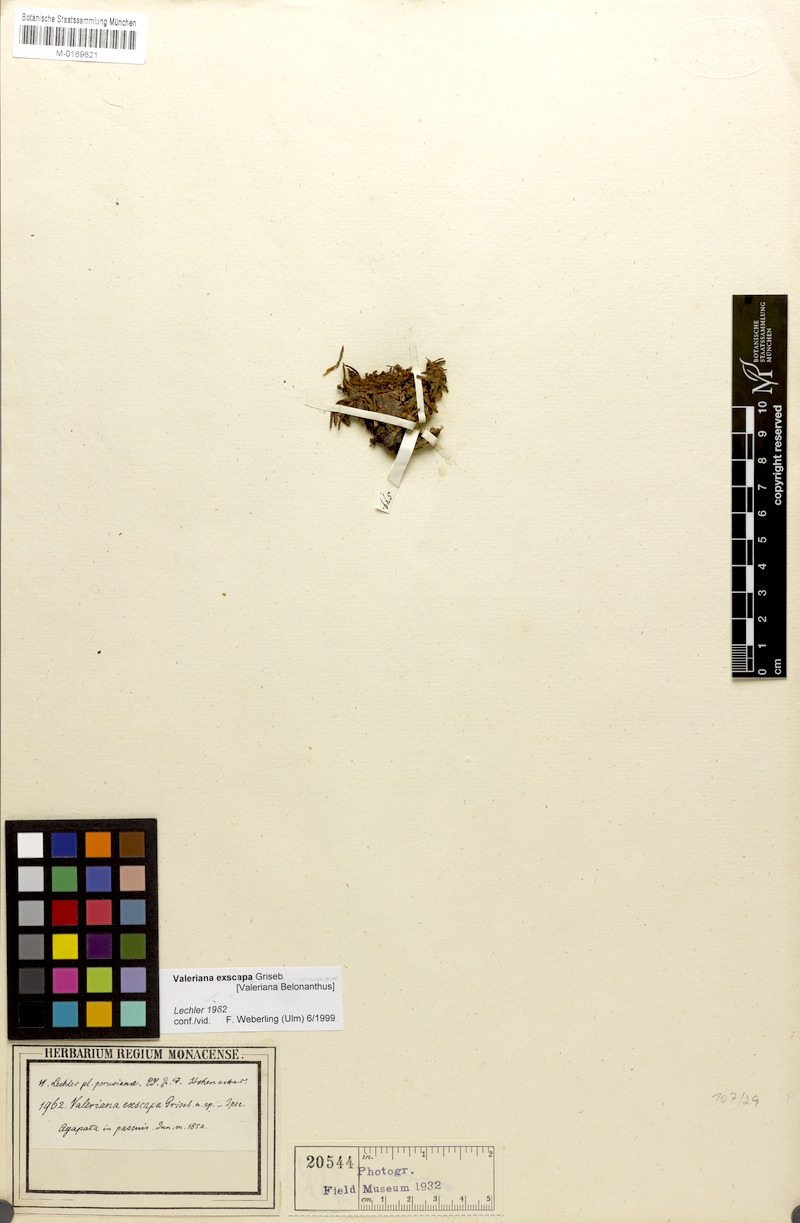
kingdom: Plantae
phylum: Tracheophyta
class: Magnoliopsida
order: Dipsacales
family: Caprifoliaceae
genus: Valeriana
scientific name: Valeriana niphobia
